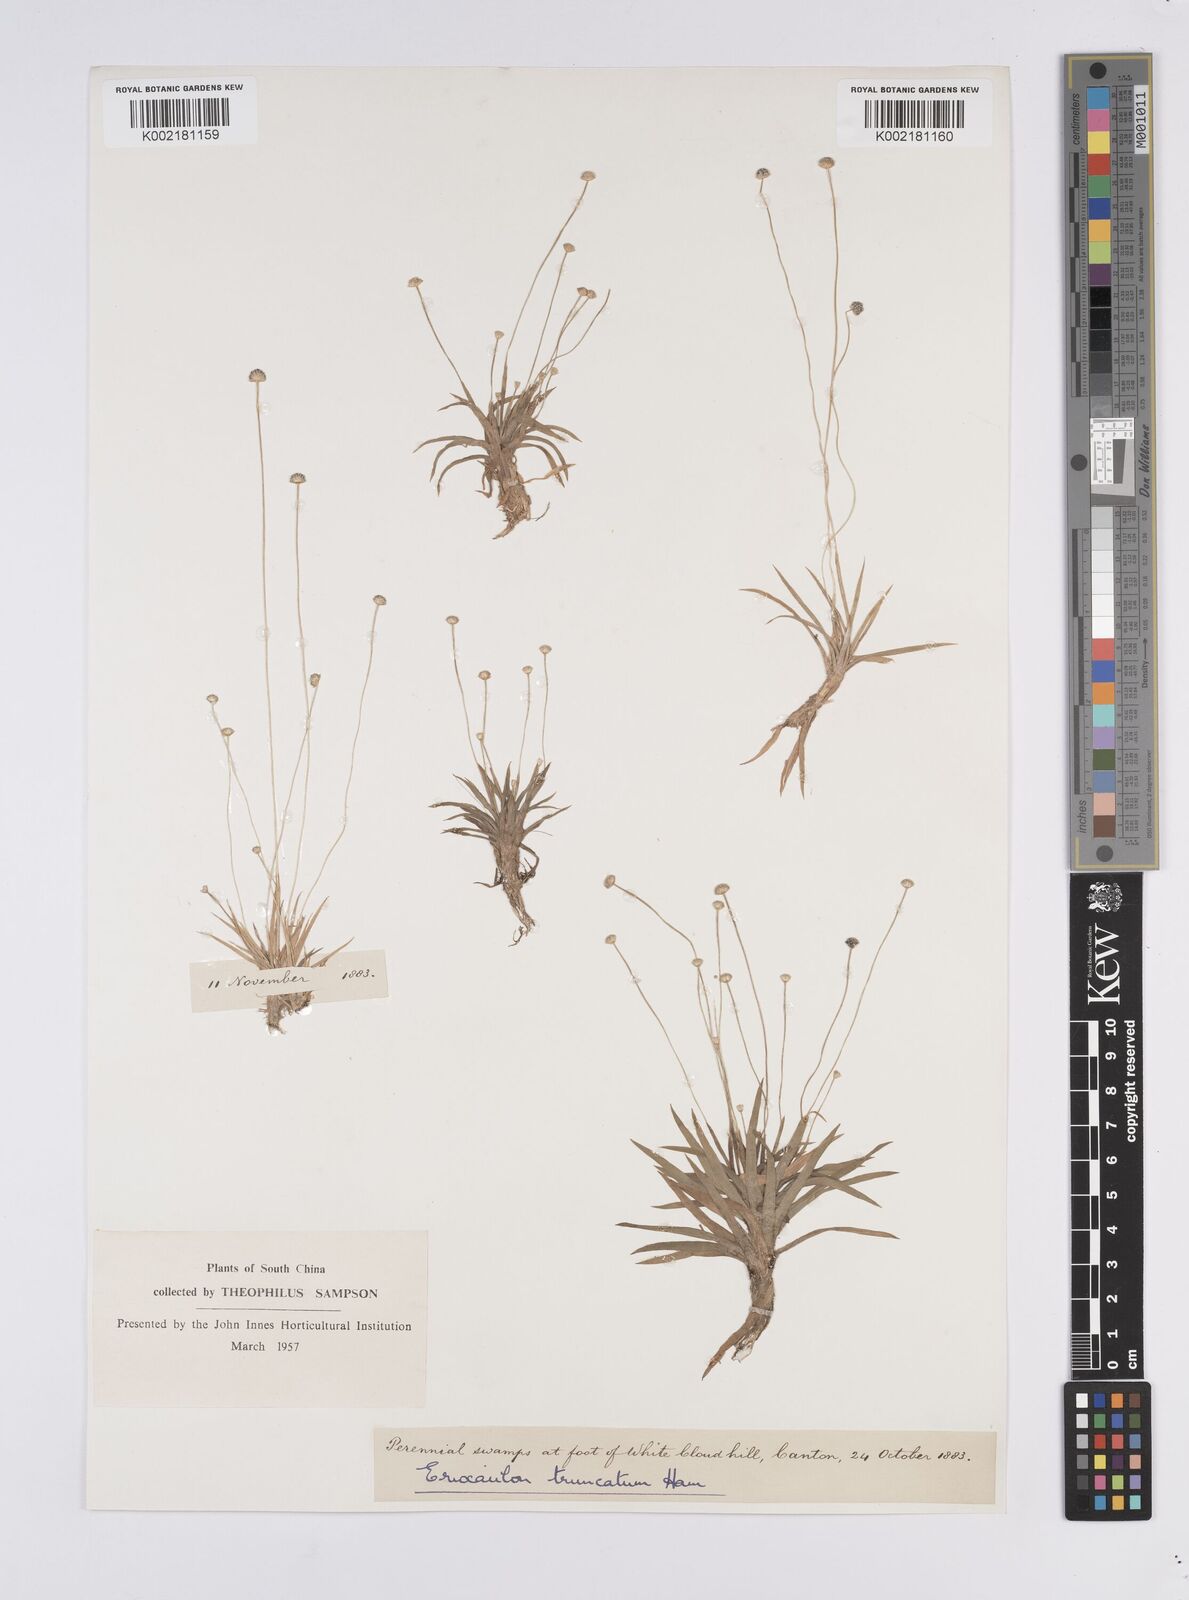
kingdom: Plantae
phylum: Tracheophyta
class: Liliopsida
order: Poales
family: Eriocaulaceae
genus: Eriocaulon
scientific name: Eriocaulon nepalense
